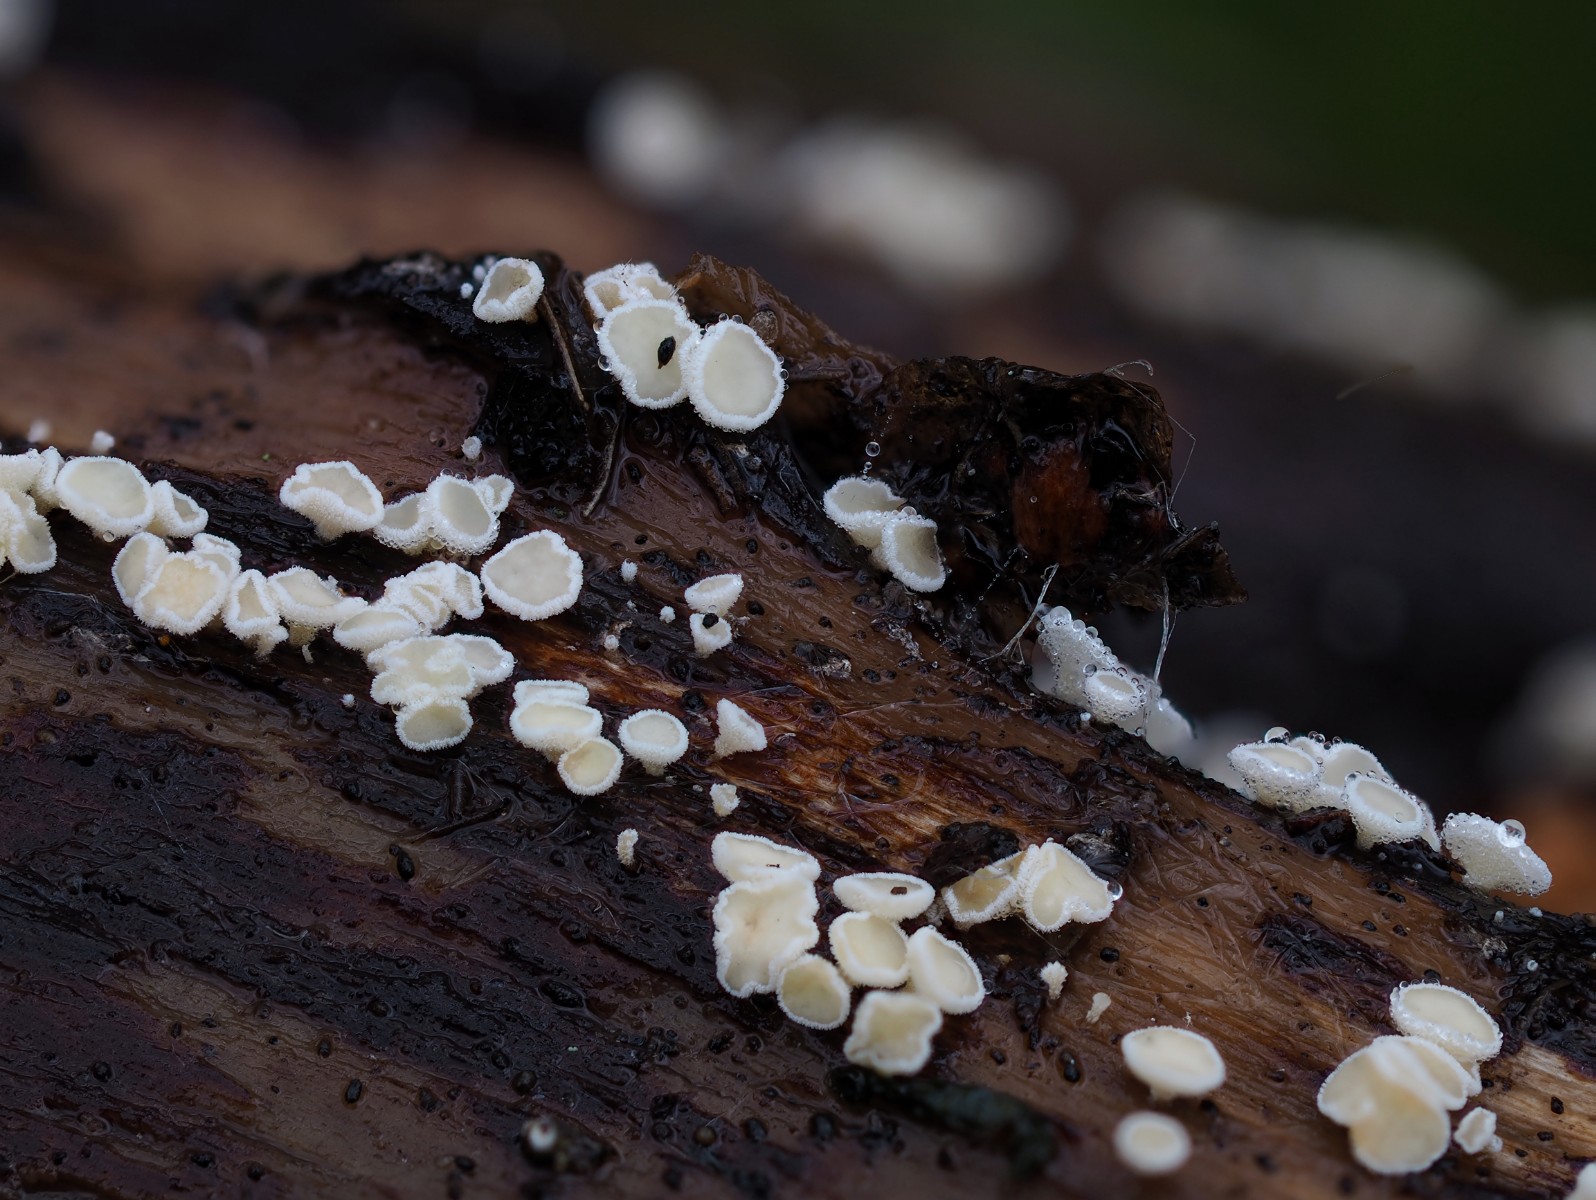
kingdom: Fungi
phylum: Ascomycota
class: Leotiomycetes
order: Helotiales
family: Lachnaceae
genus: Lachnum
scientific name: Lachnum
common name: frynseskive
